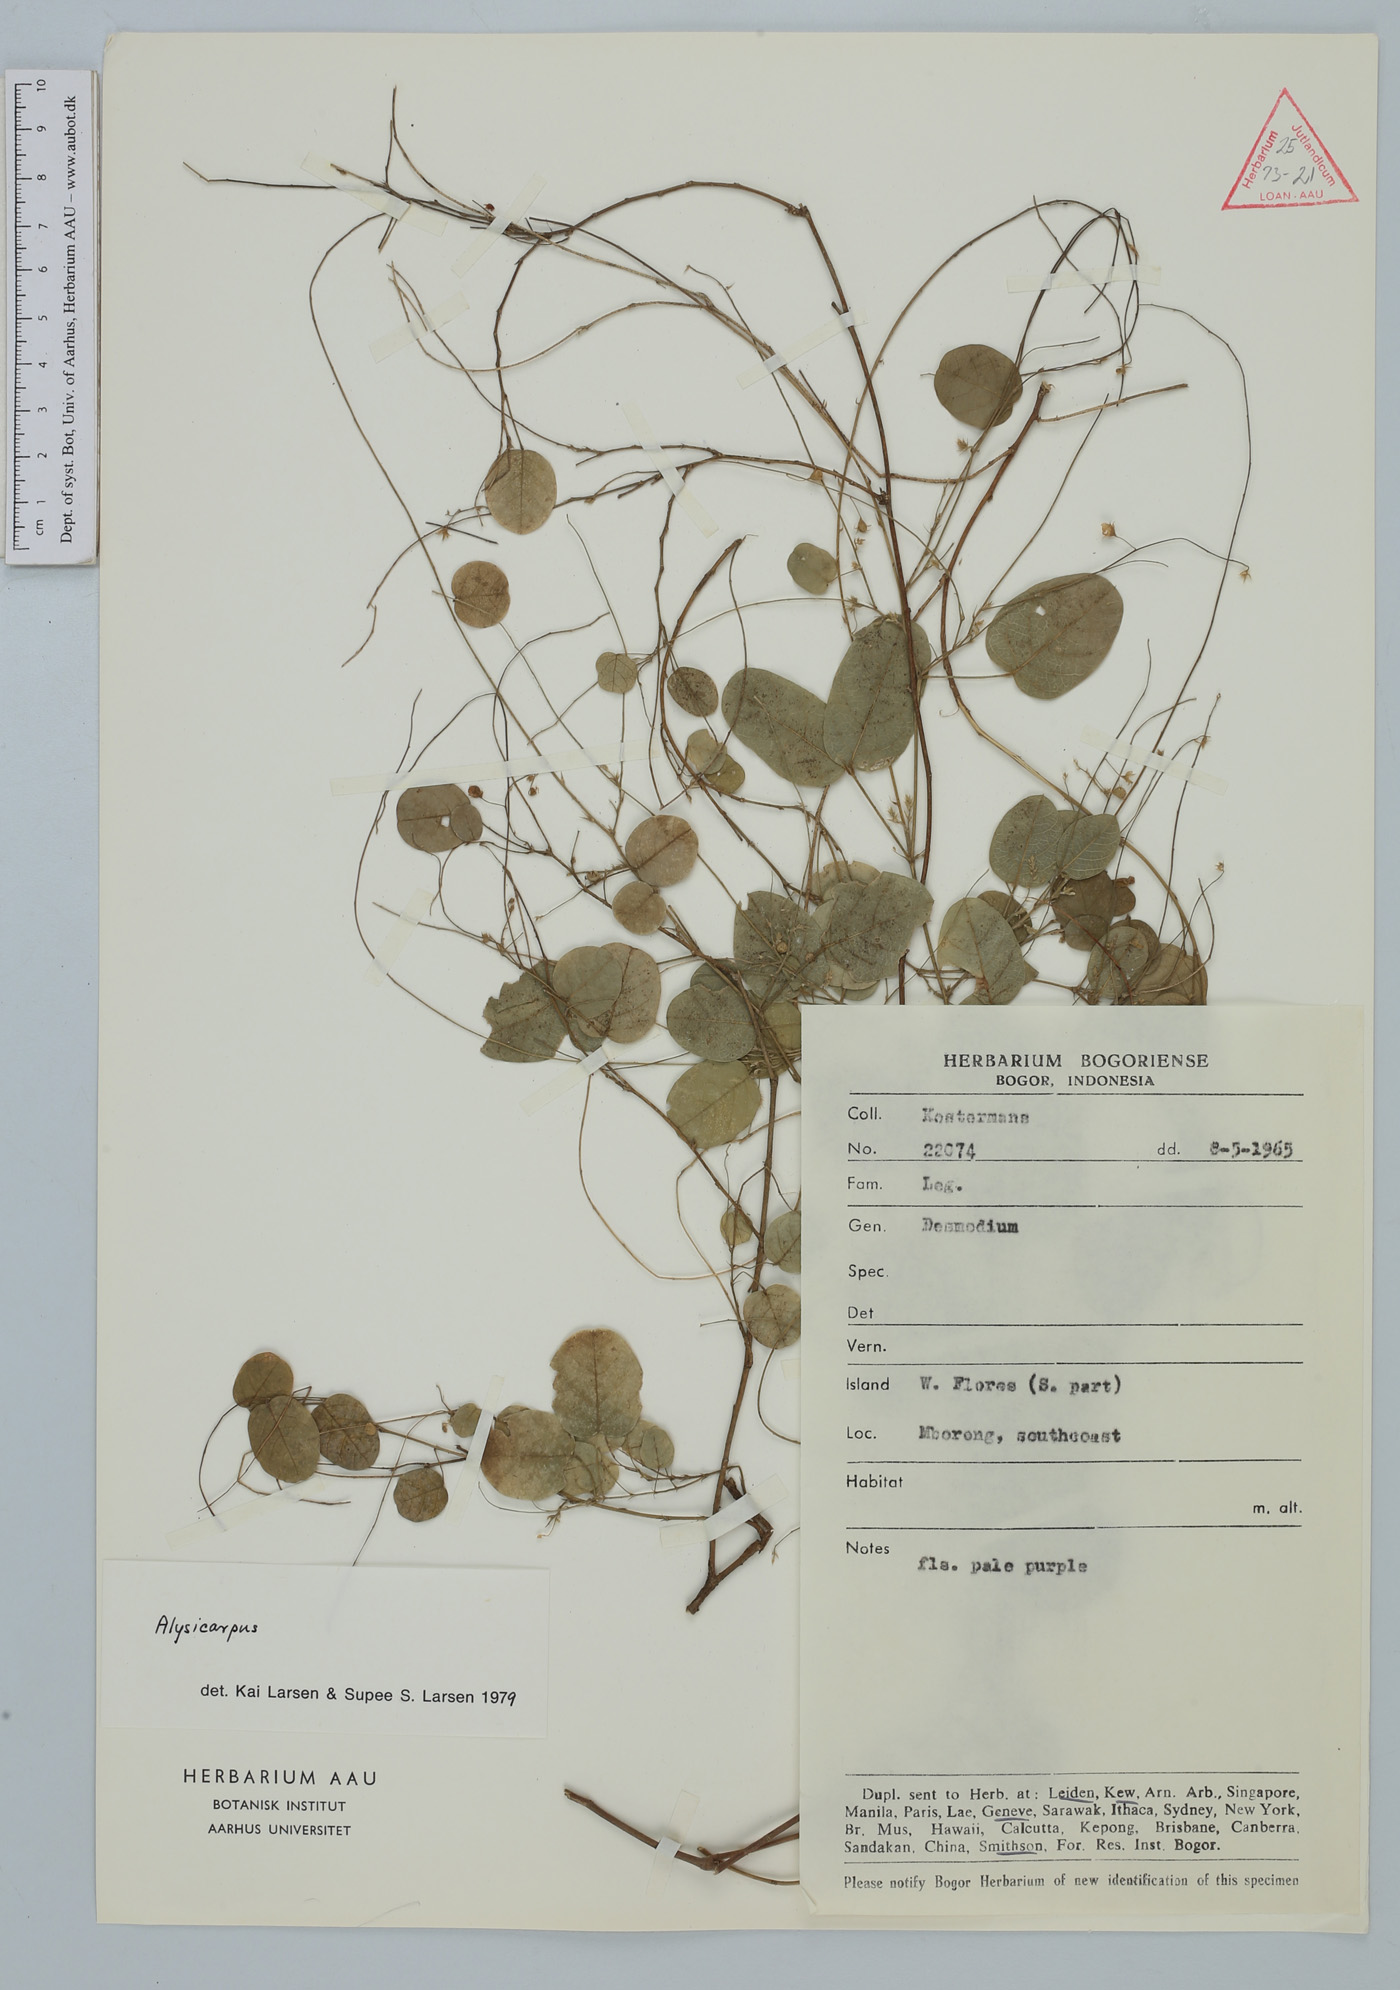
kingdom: Plantae
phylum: Tracheophyta
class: Magnoliopsida
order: Fabales
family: Fabaceae
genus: Alysicarpus
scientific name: Alysicarpus
